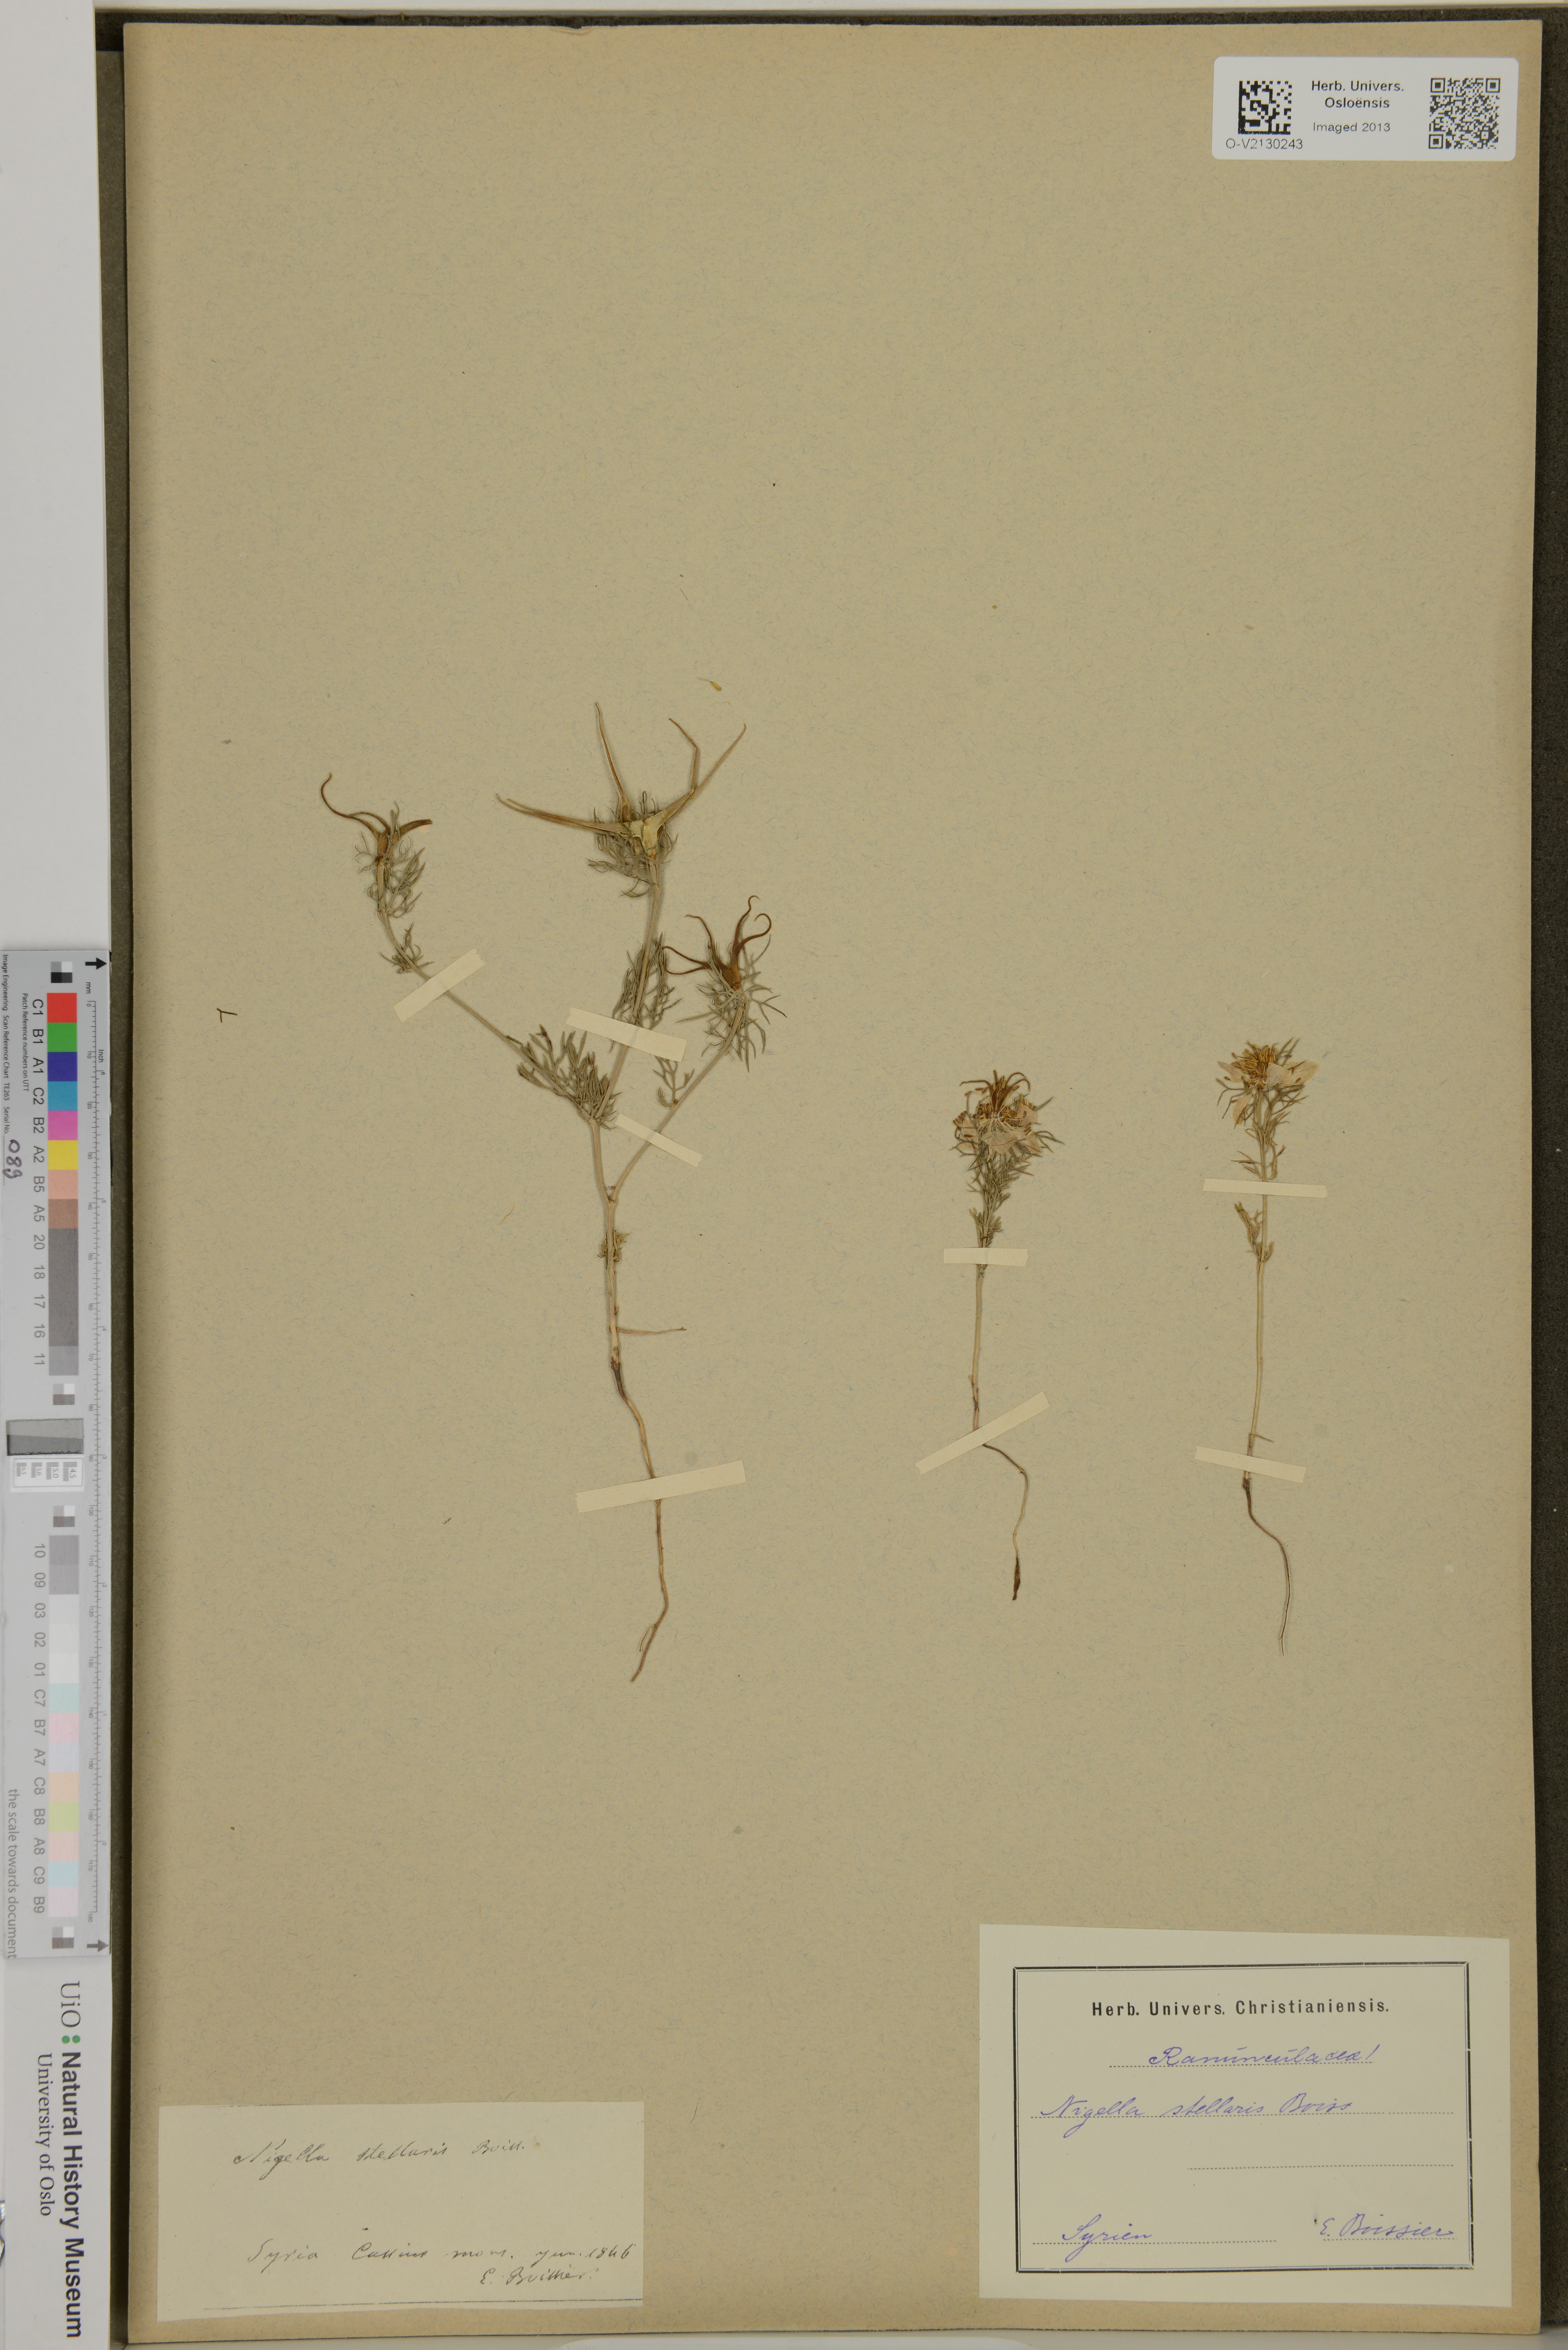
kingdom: Plantae
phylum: Tracheophyta
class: Magnoliopsida
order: Ranunculales
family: Ranunculaceae
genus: Nigella
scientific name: Nigella stellaris
